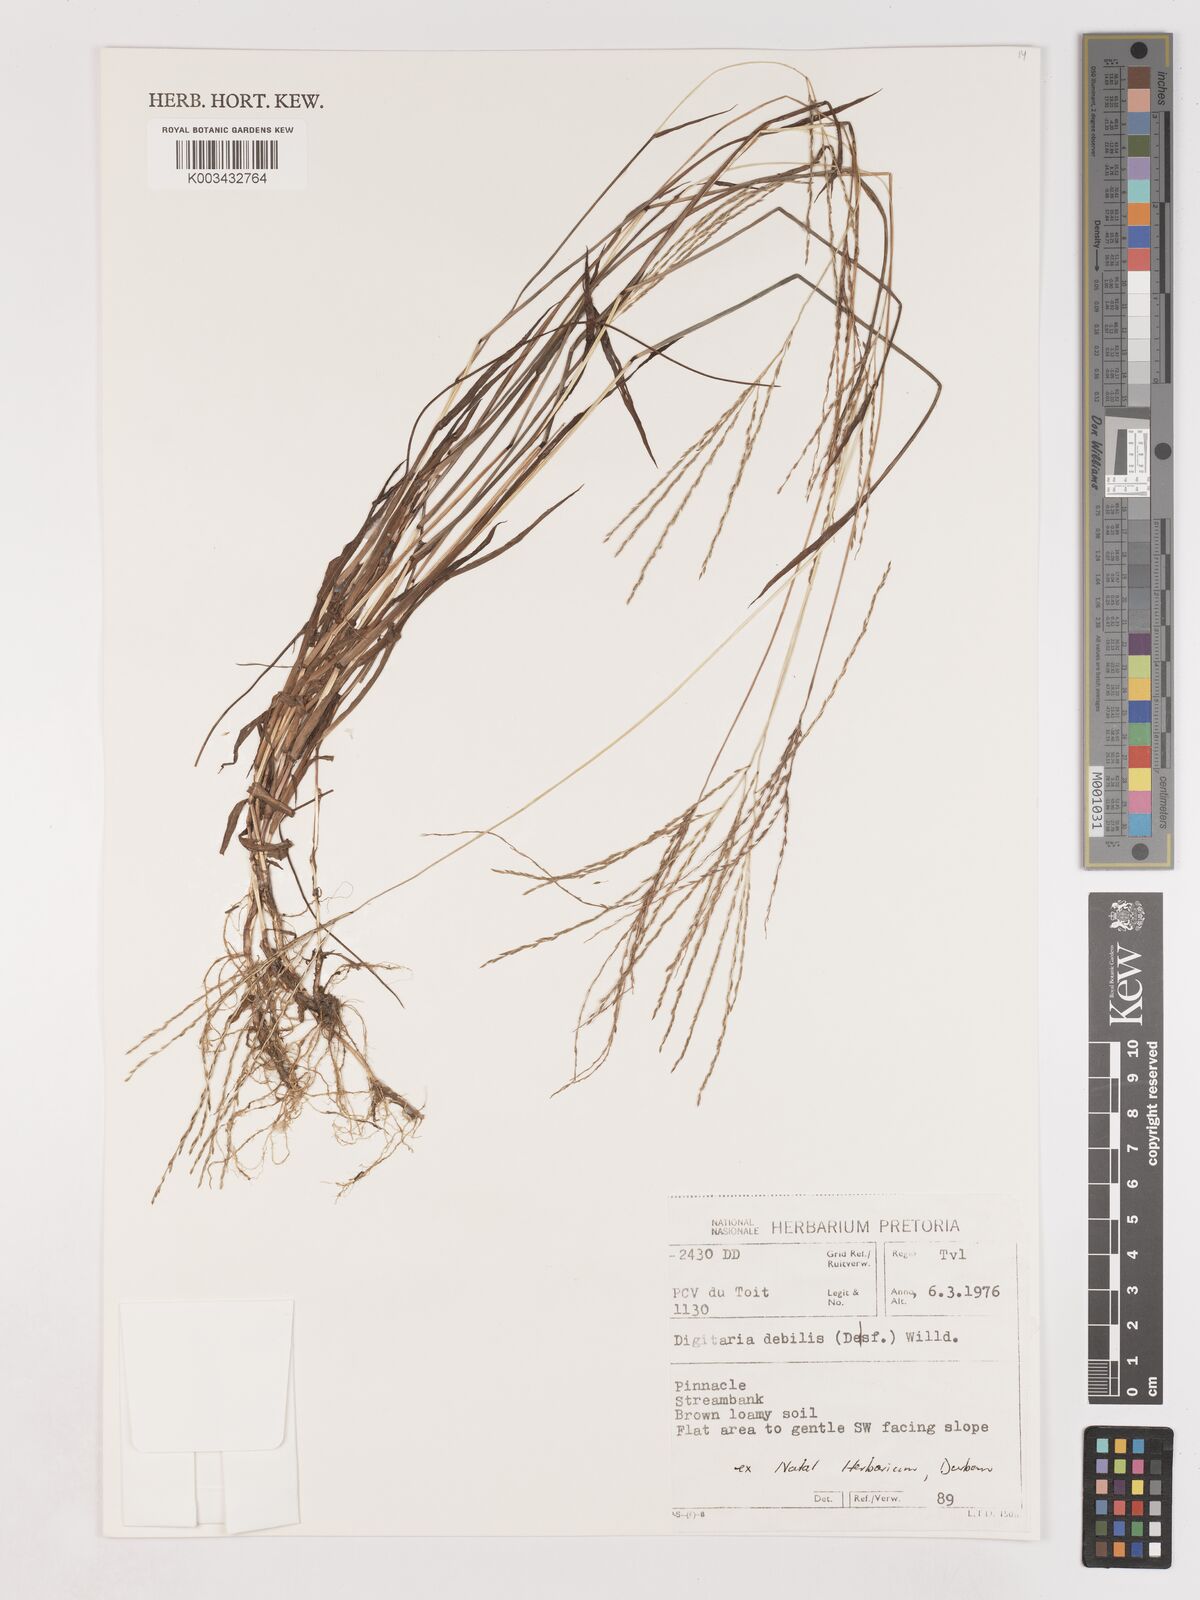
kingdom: Plantae
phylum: Tracheophyta
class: Liliopsida
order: Poales
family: Poaceae
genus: Digitaria
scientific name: Digitaria debilis
